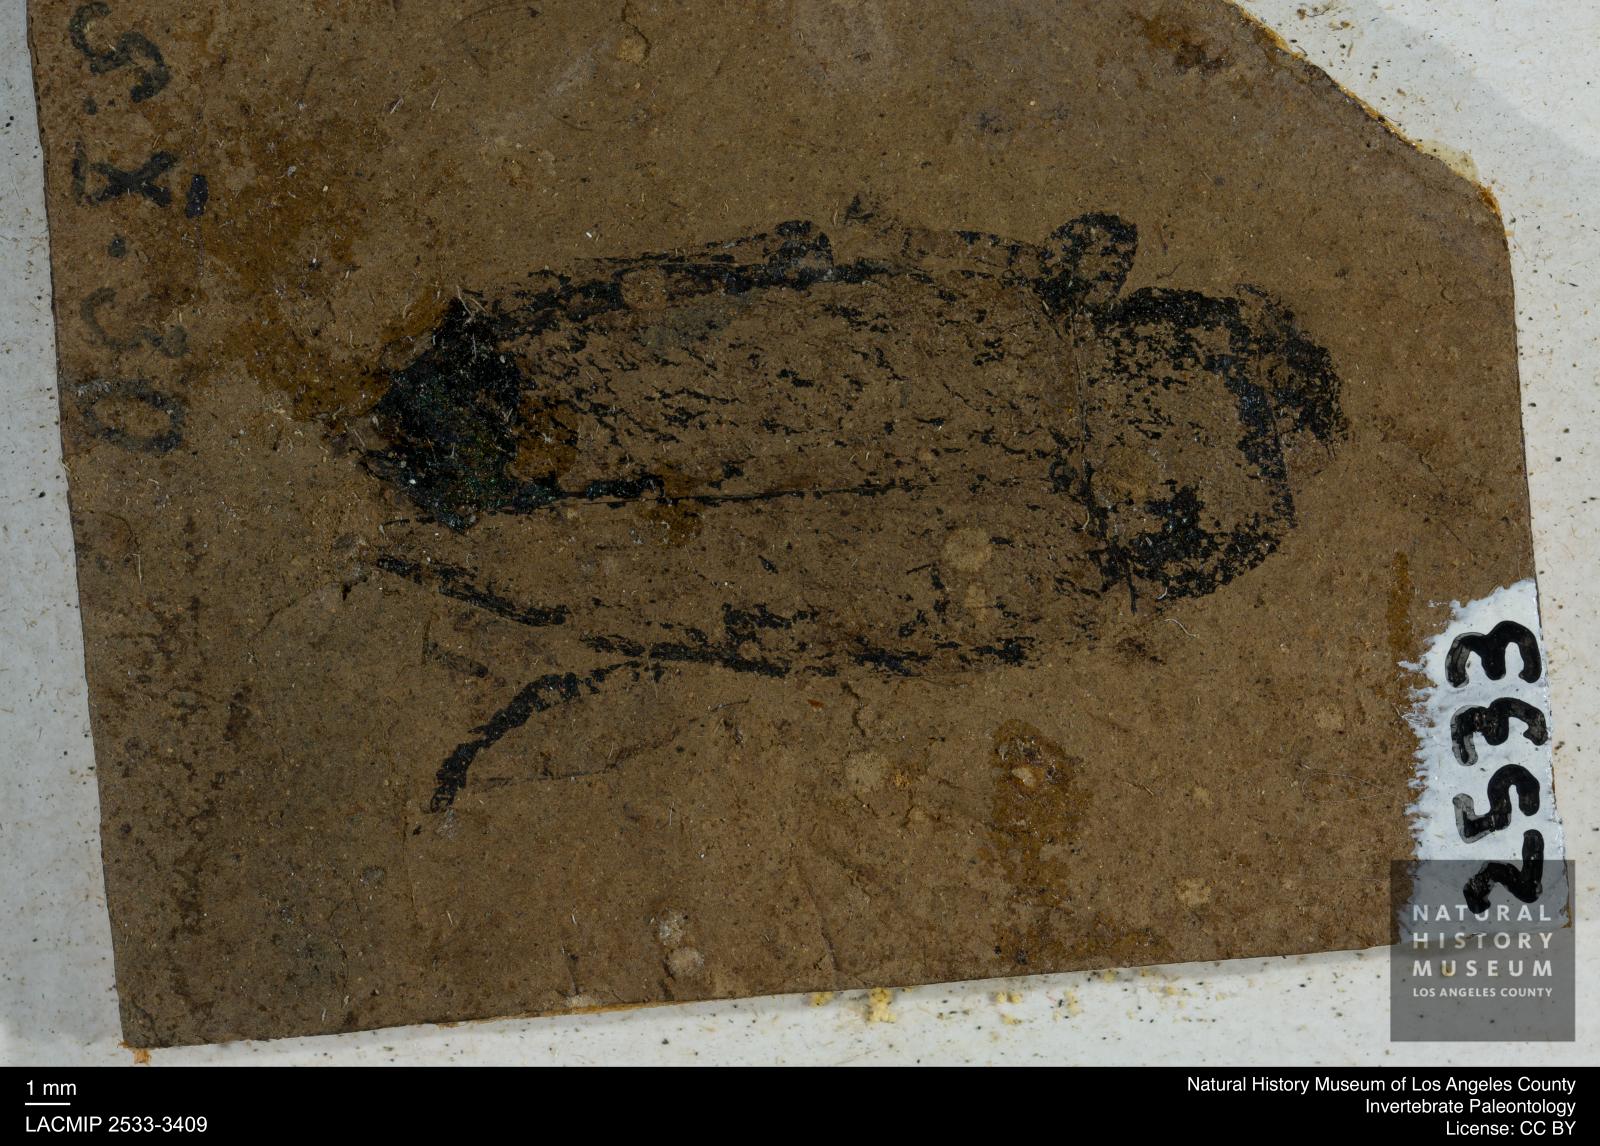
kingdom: Animalia
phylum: Arthropoda
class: Insecta
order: Coleoptera
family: Buprestidae
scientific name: Buprestidae
